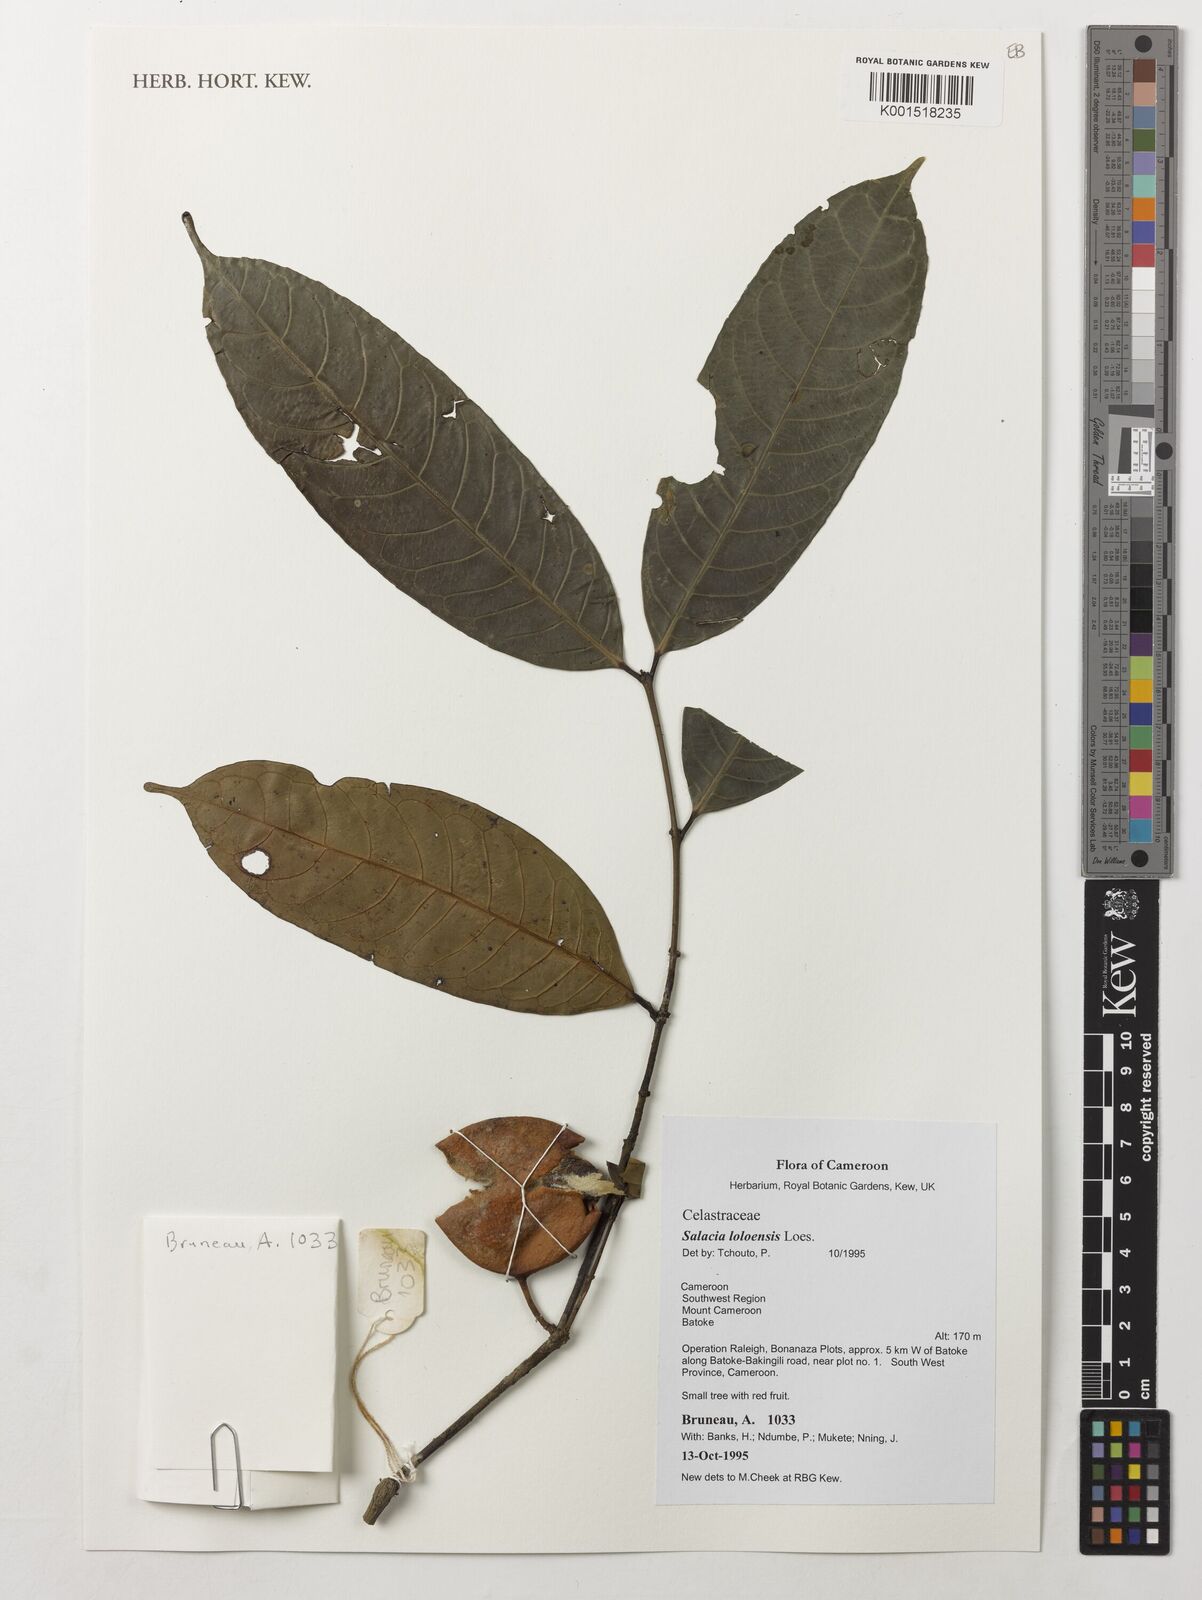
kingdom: Plantae
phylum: Tracheophyta
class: Magnoliopsida
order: Celastrales
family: Celastraceae
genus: Salacia
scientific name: Salacia loloensis
